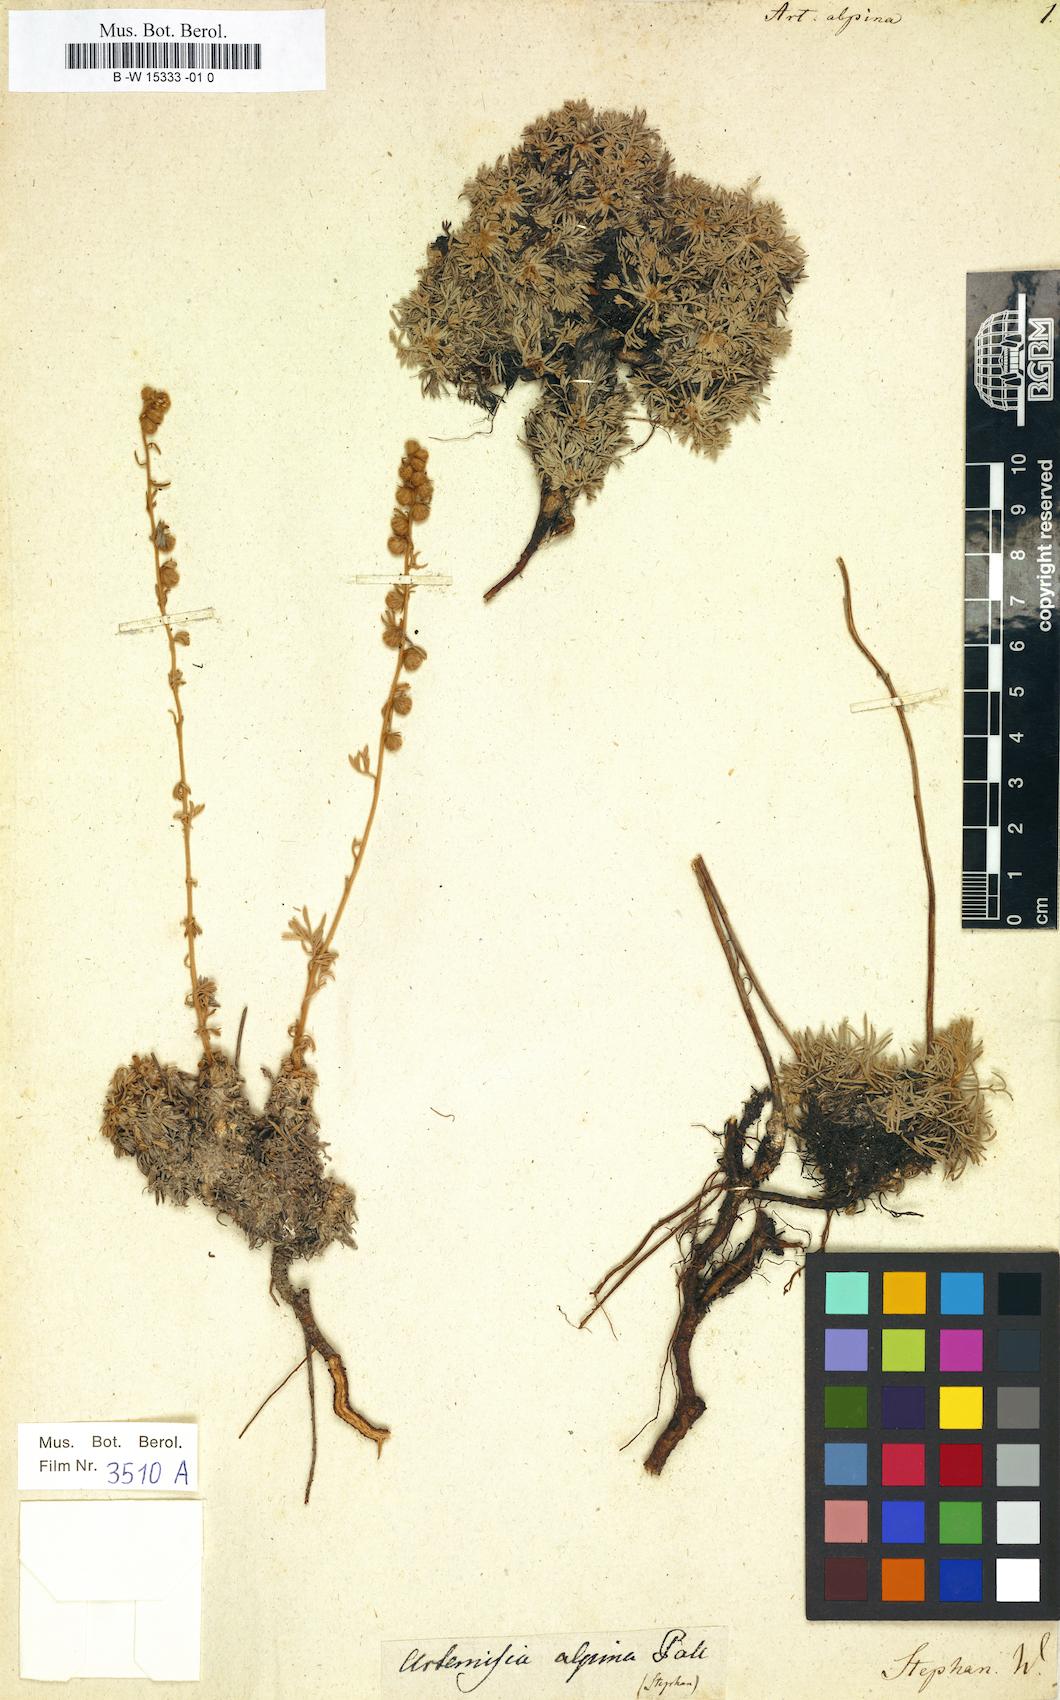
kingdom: Plantae
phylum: Tracheophyta
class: Magnoliopsida
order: Asterales
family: Asteraceae
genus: Artemisia
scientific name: Artemisia alpina
